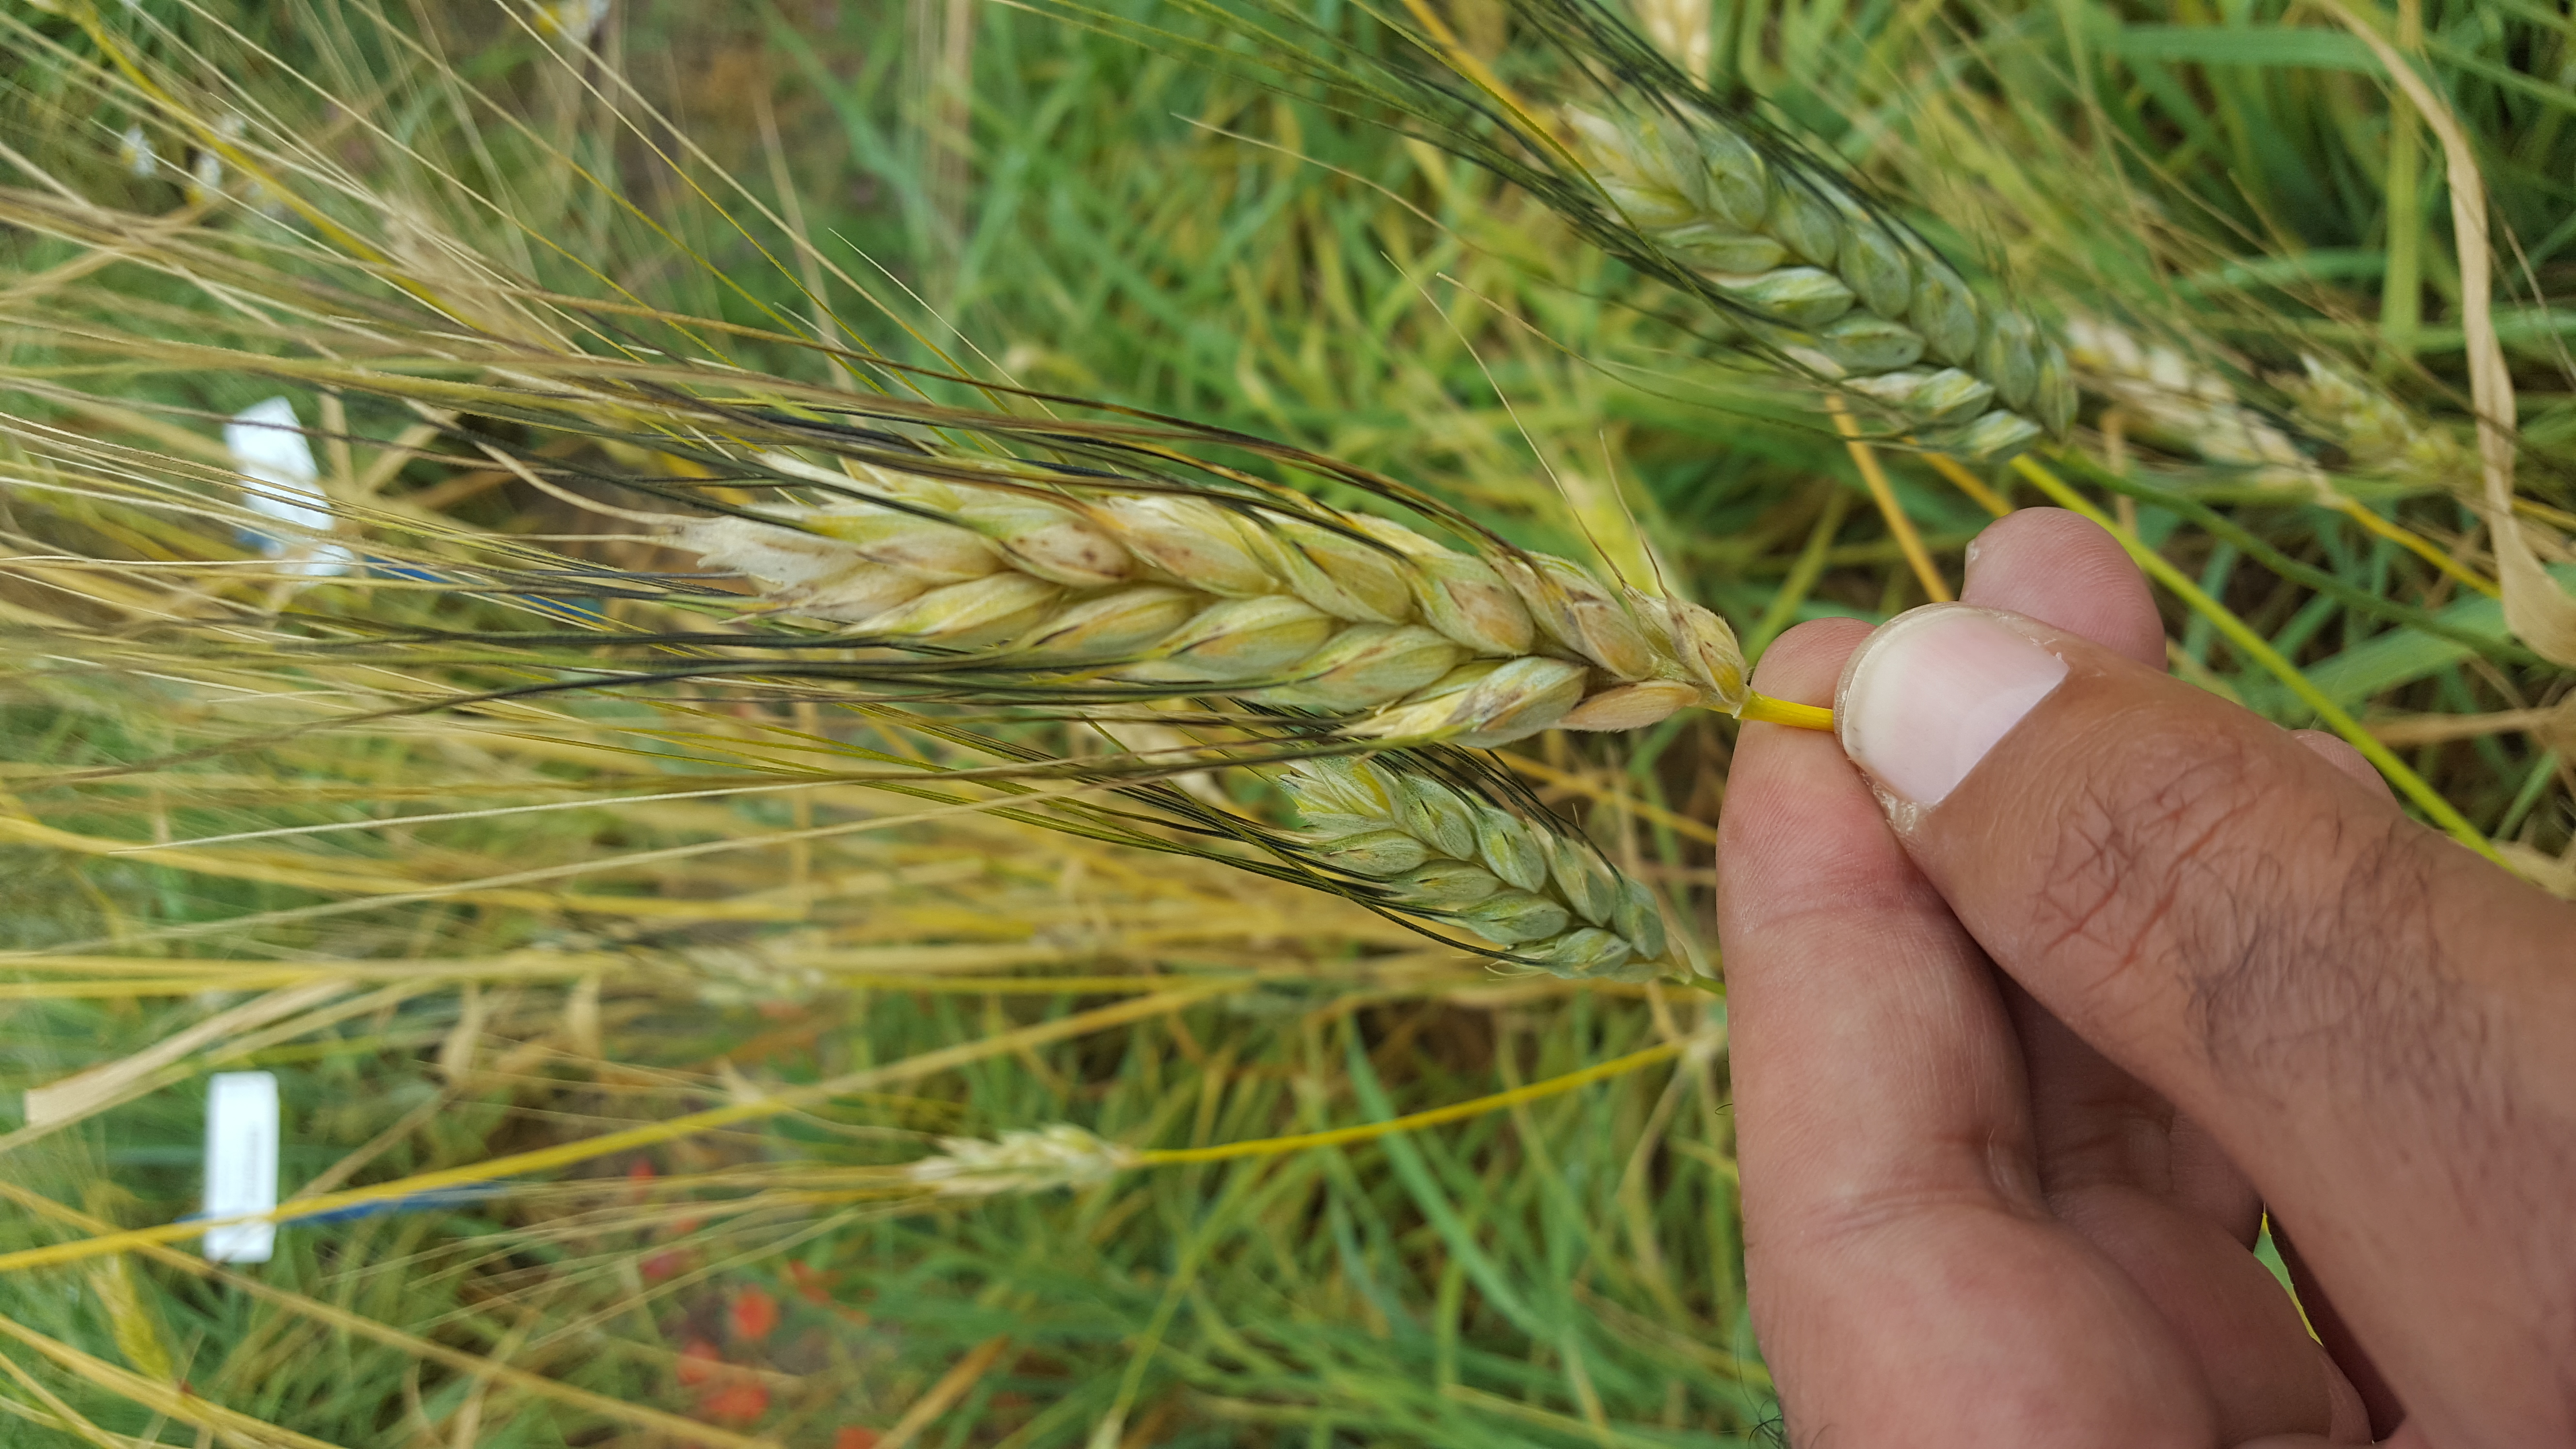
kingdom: Plantae
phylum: Tracheophyta
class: Liliopsida
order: Poales
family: Poaceae
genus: Triticum
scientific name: Triticum turgidum
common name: Rivet wheat
